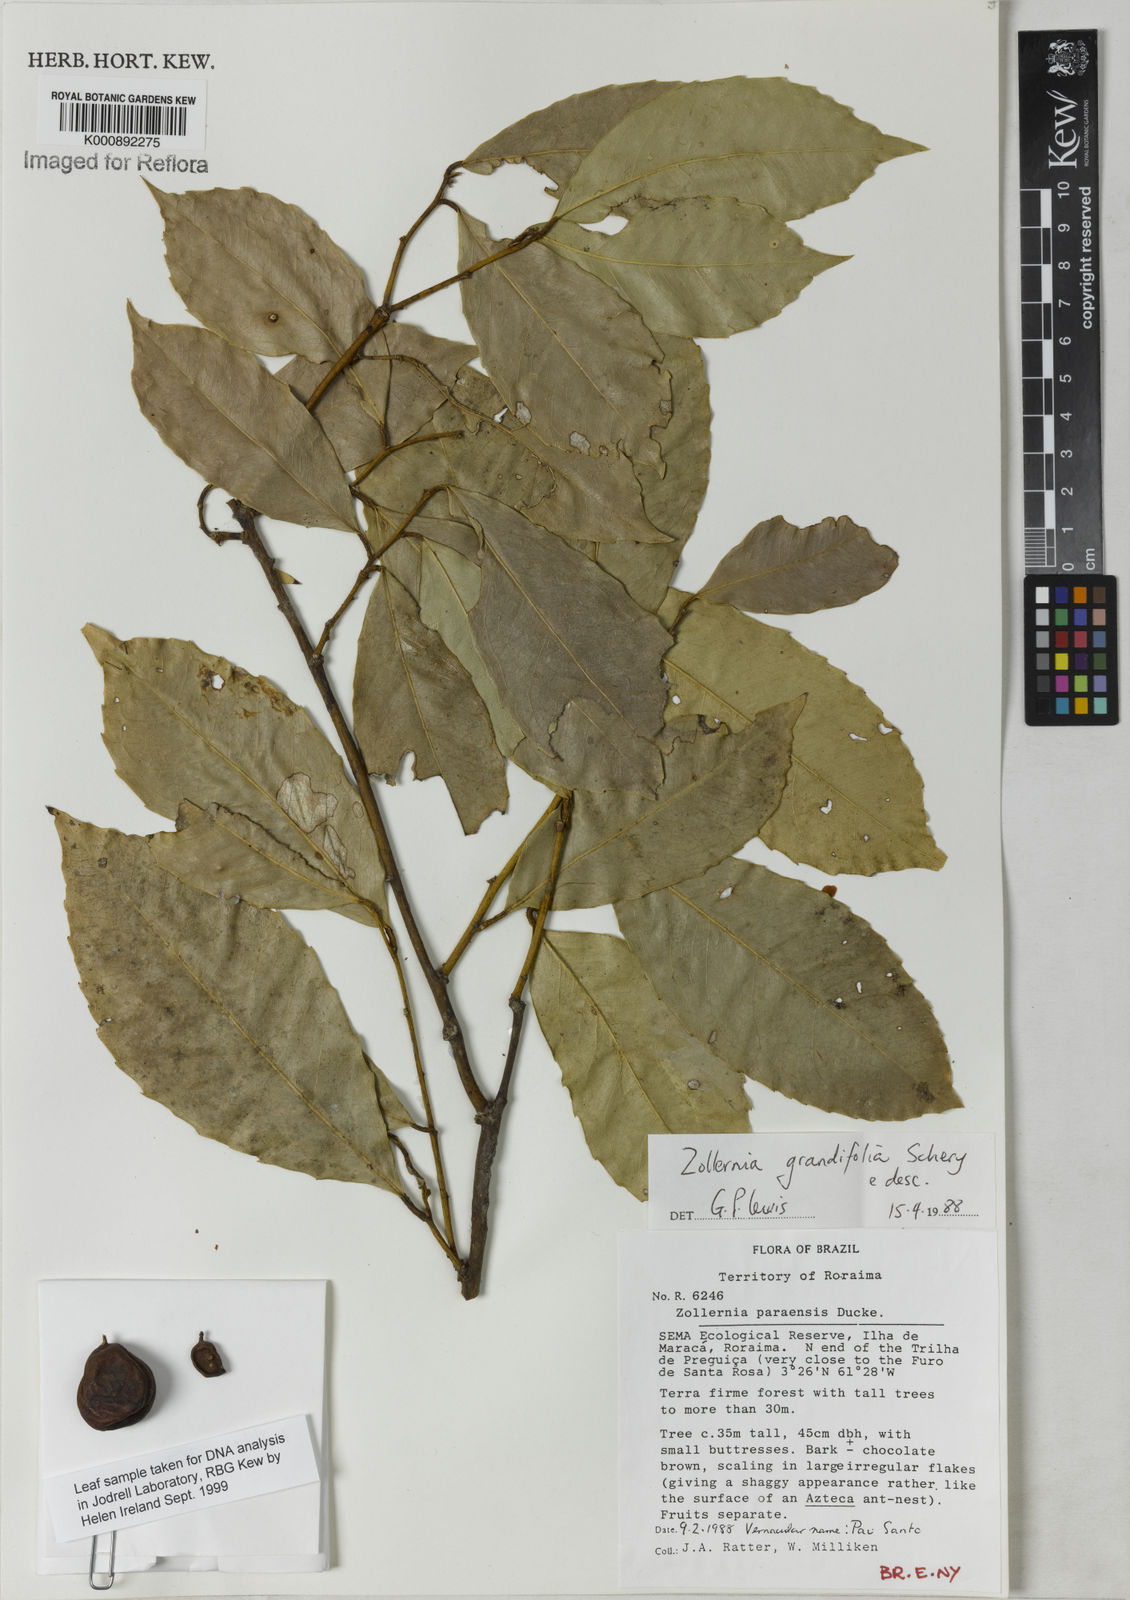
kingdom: Plantae
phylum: Tracheophyta
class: Magnoliopsida
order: Fabales
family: Fabaceae
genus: Zollernia
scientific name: Zollernia grandifolia
